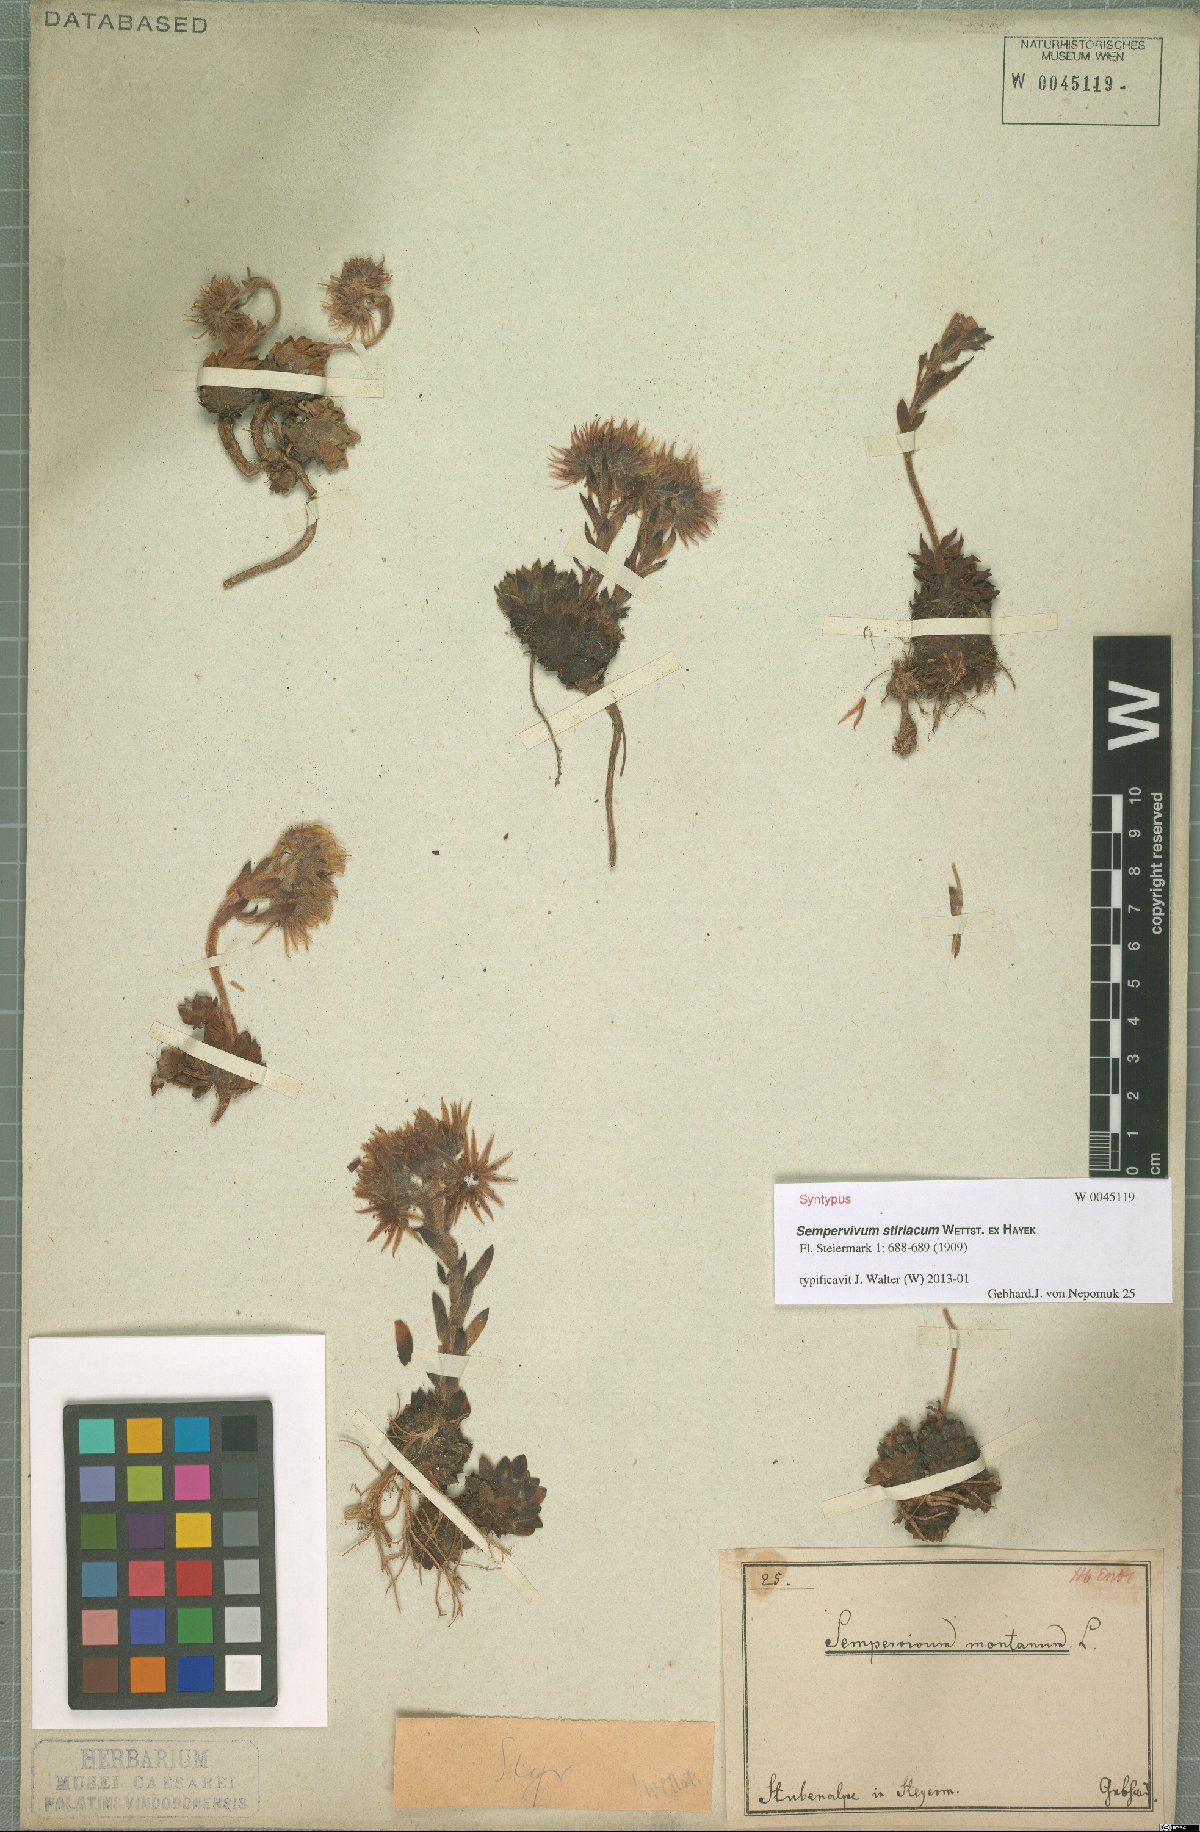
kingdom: Plantae
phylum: Tracheophyta
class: Magnoliopsida
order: Saxifragales
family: Crassulaceae
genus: Sempervivum
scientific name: Sempervivum montanum
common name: Mountain house-leek
